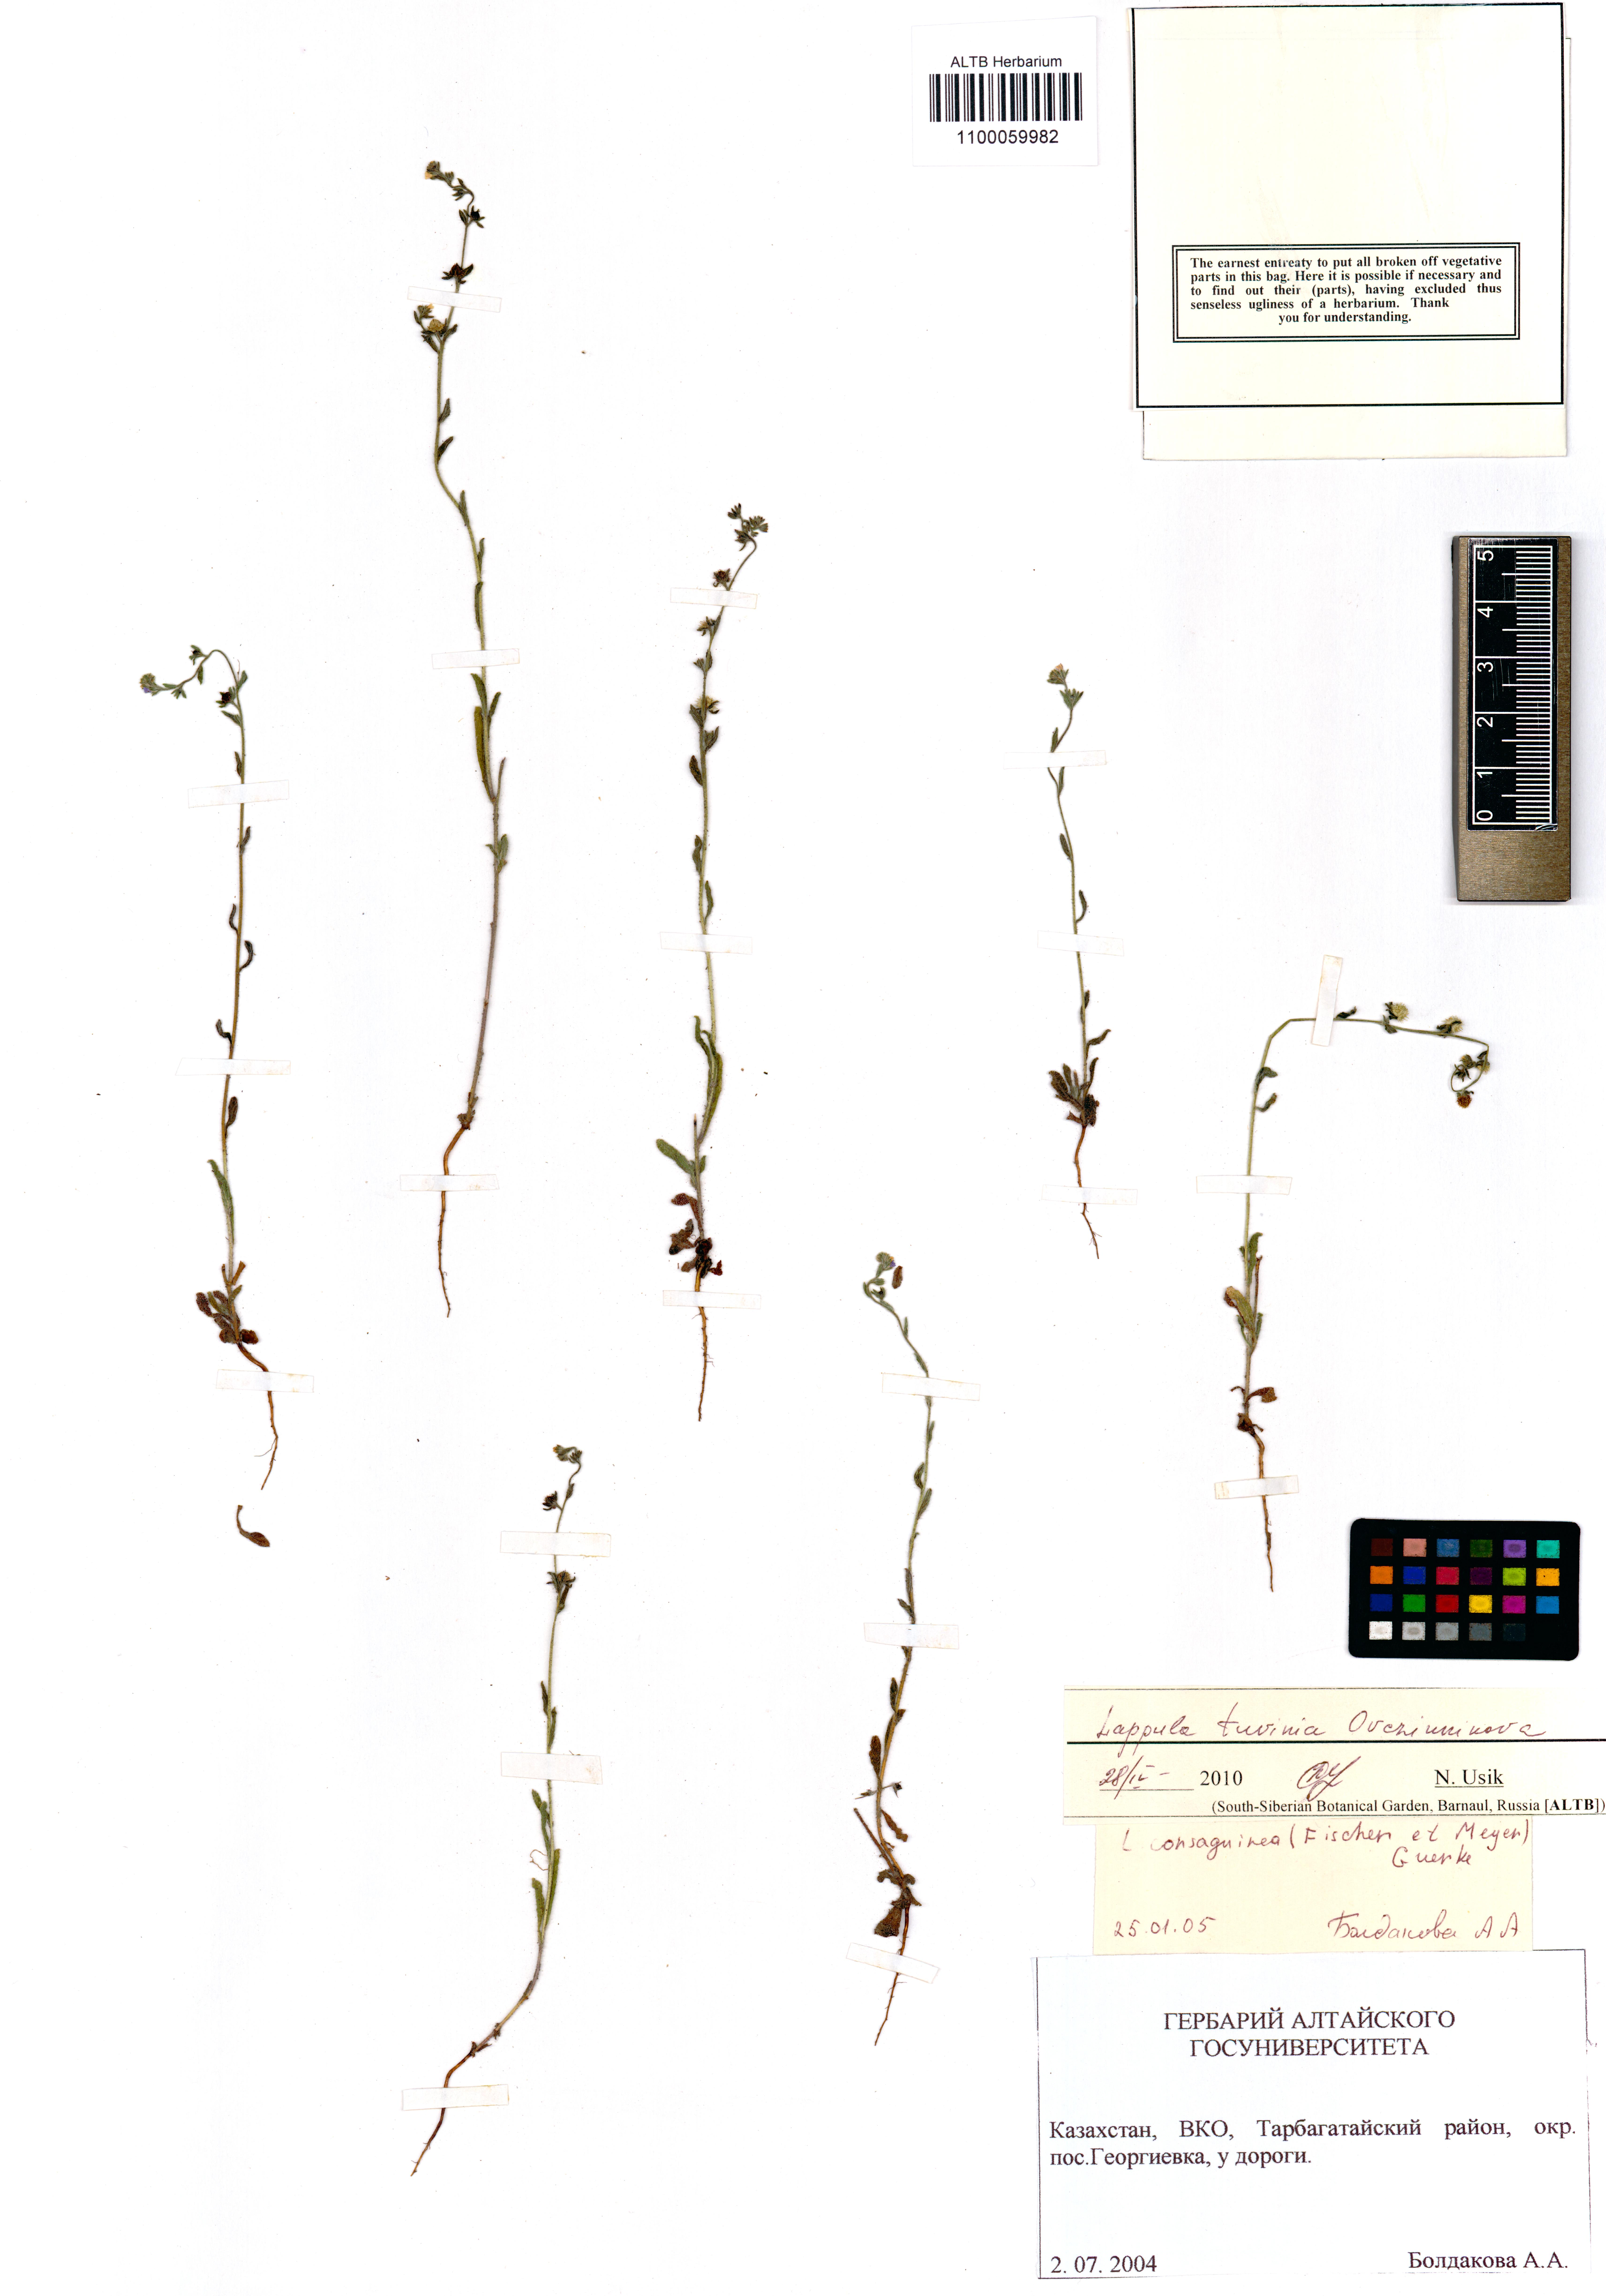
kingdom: Plantae
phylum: Tracheophyta
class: Magnoliopsida
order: Boraginales
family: Boraginaceae
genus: Lappula
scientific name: Lappula tuvinica
